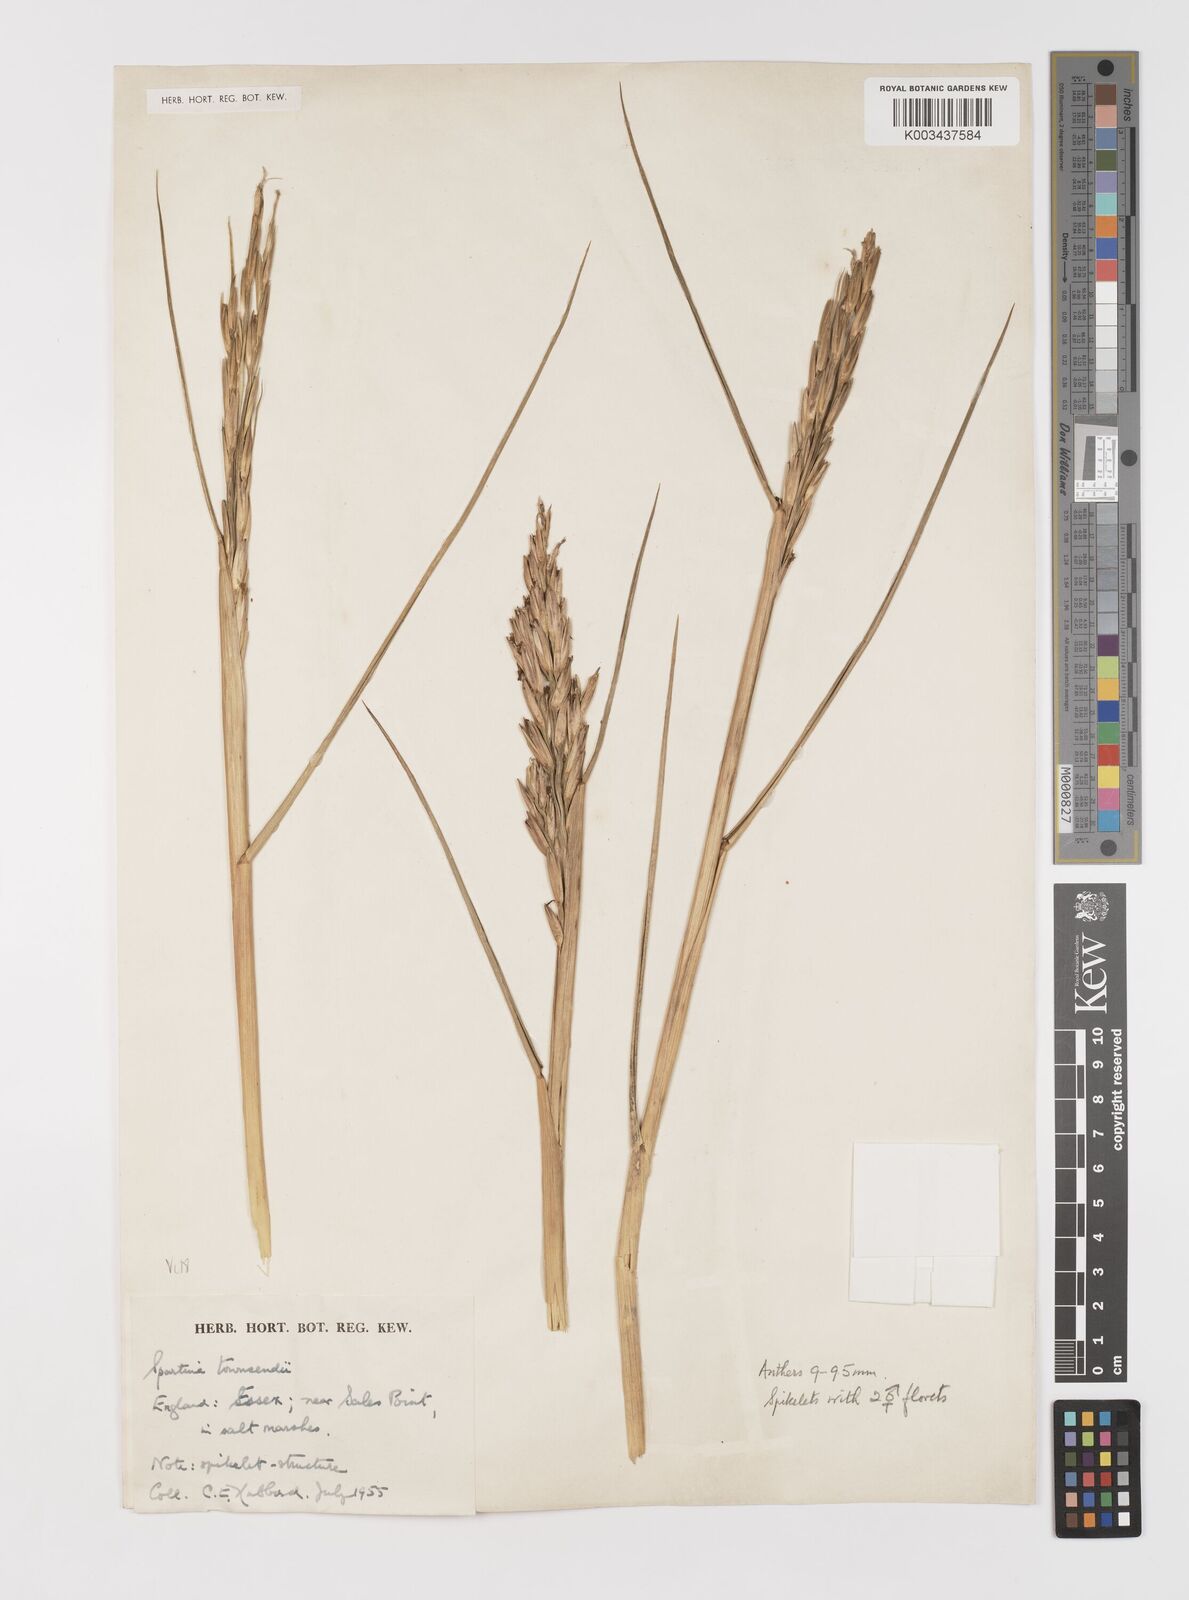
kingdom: Plantae
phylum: Tracheophyta
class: Liliopsida
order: Poales
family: Poaceae
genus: Sporobolus
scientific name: Sporobolus anglicus
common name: English cordgrass
